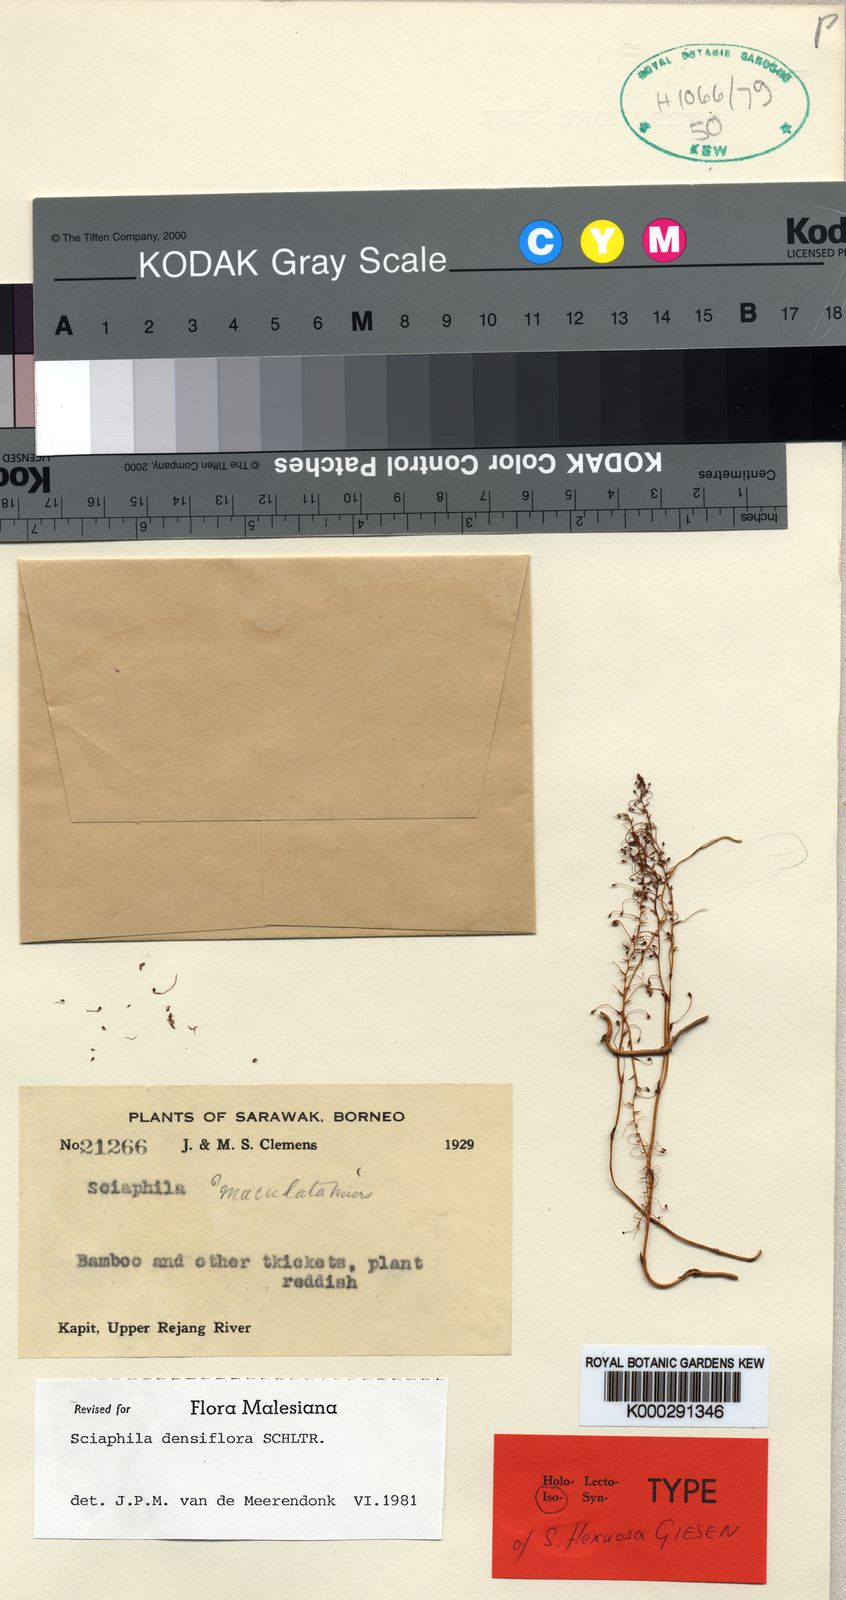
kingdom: Plantae
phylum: Tracheophyta
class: Liliopsida
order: Pandanales
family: Triuridaceae
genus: Sciaphila
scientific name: Sciaphila densiflora
